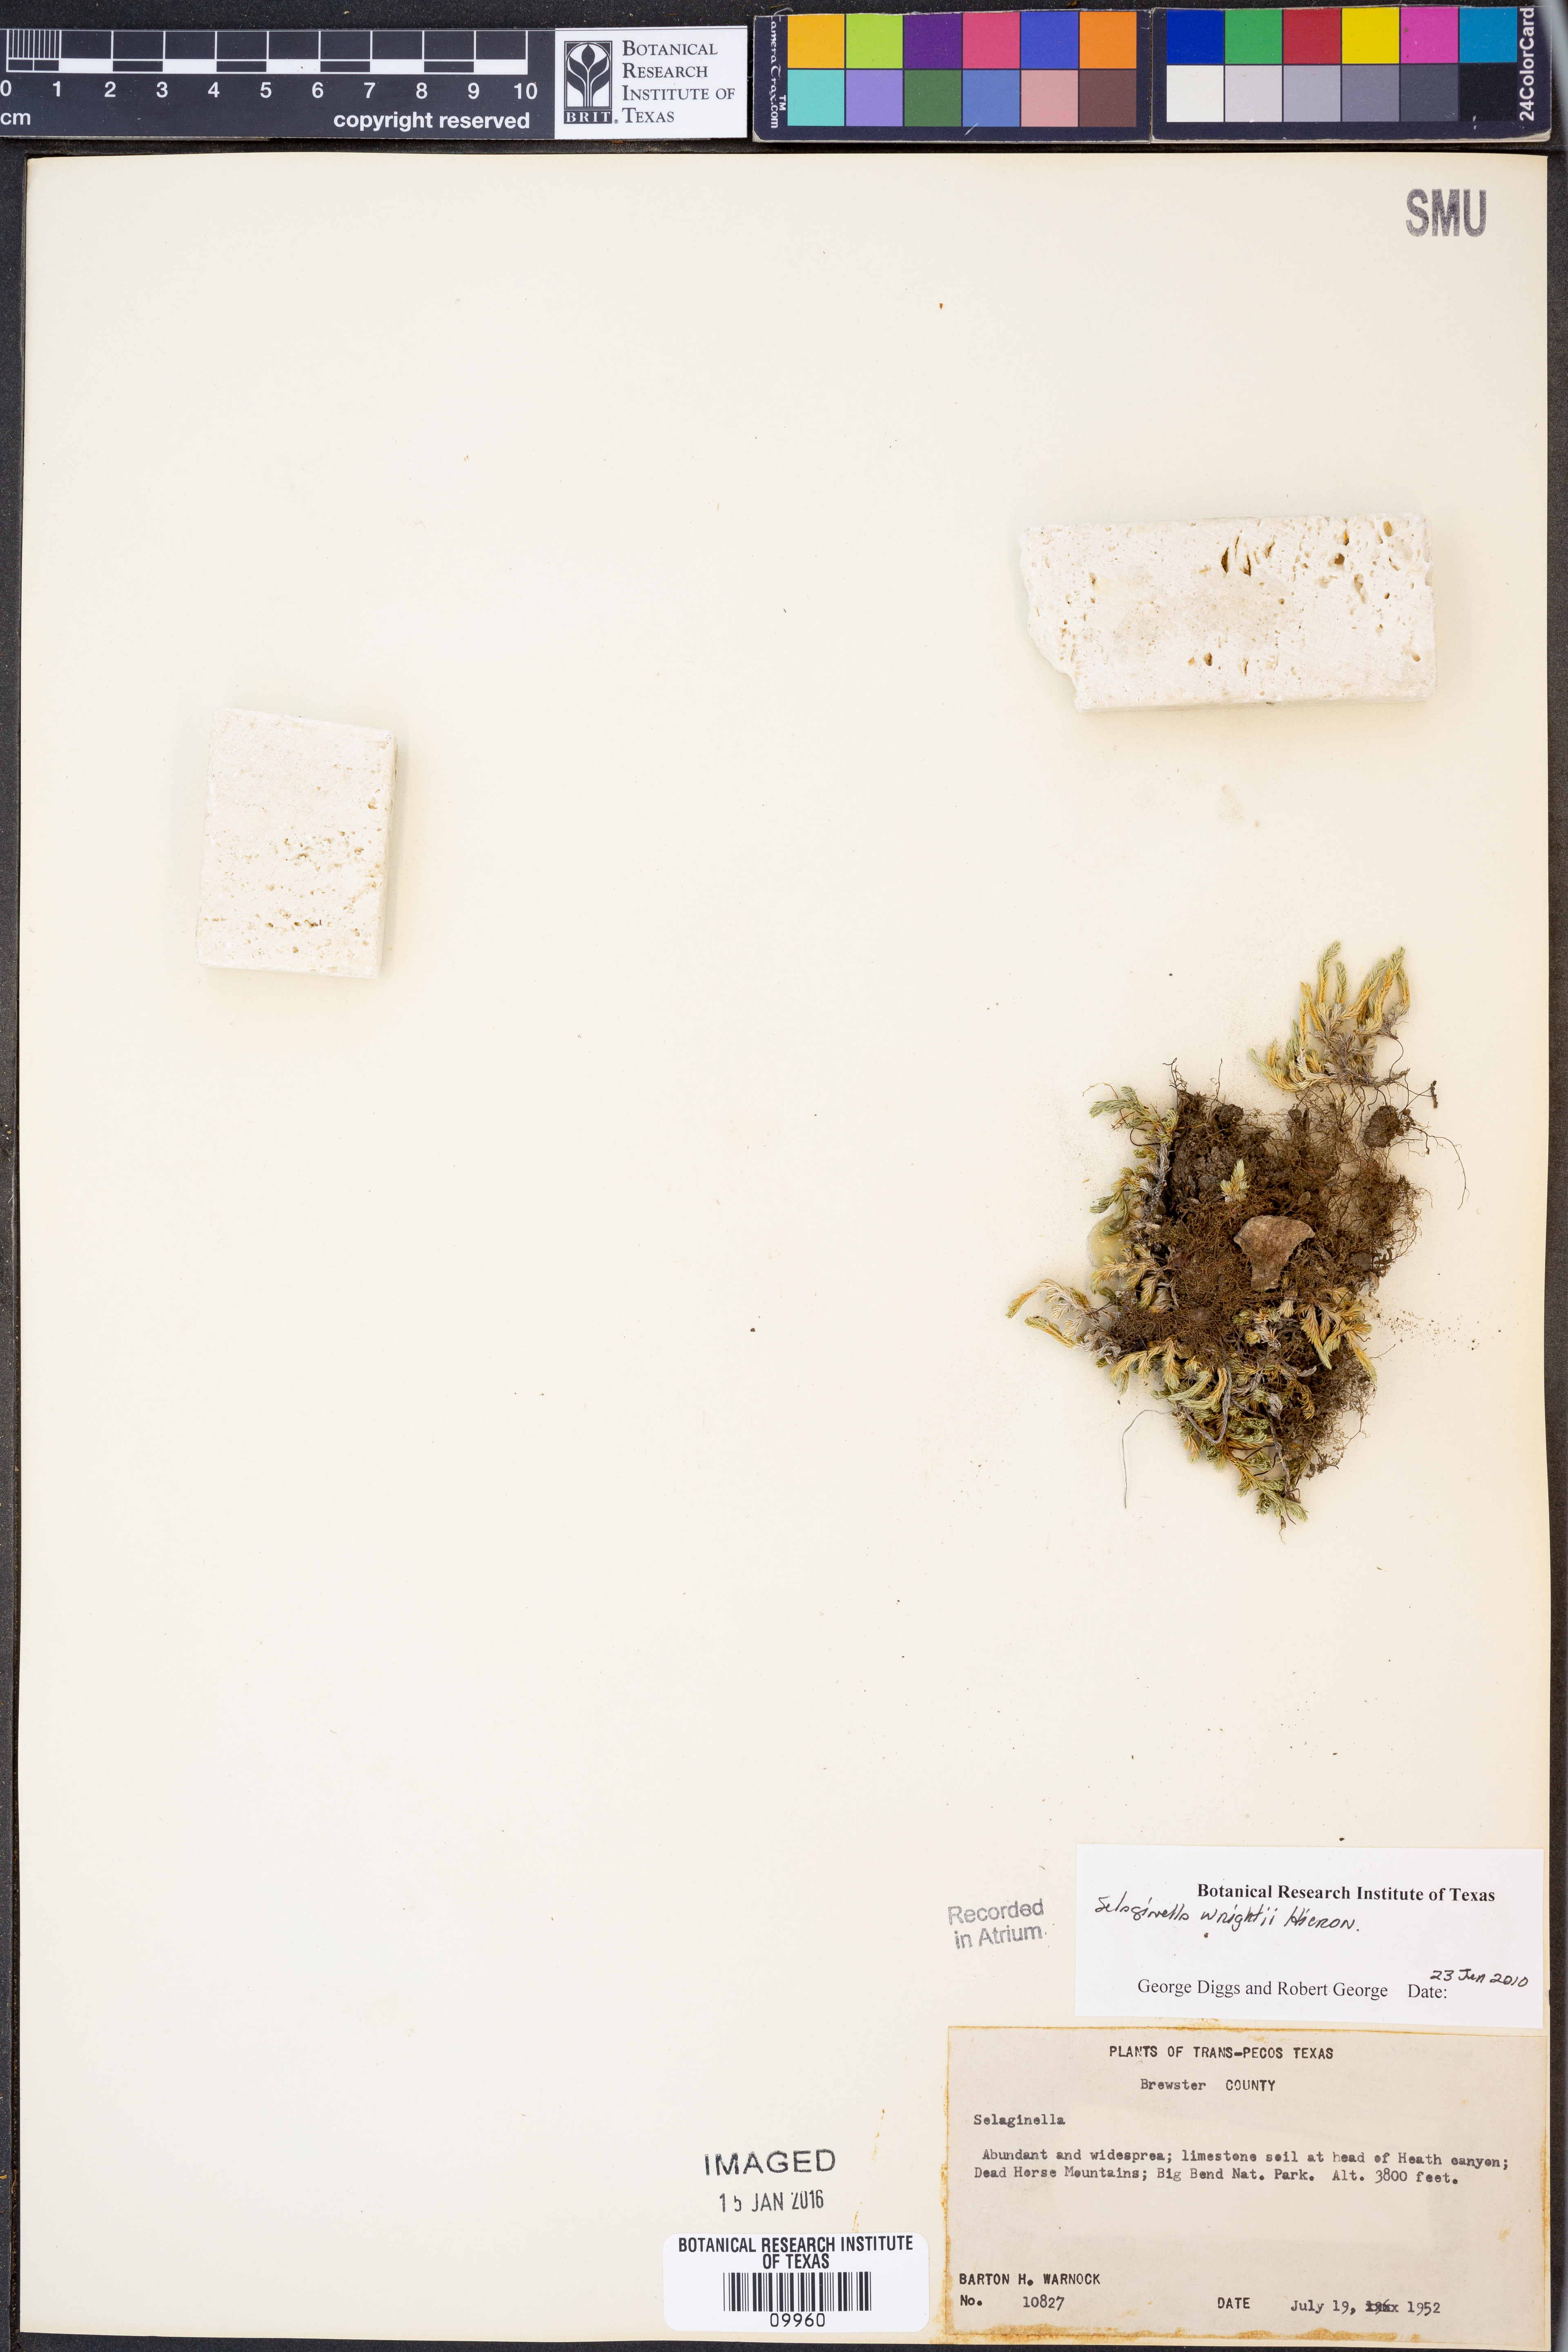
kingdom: Plantae
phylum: Tracheophyta
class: Lycopodiopsida
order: Selaginellales
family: Selaginellaceae
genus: Selaginella
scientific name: Selaginella wrightii
